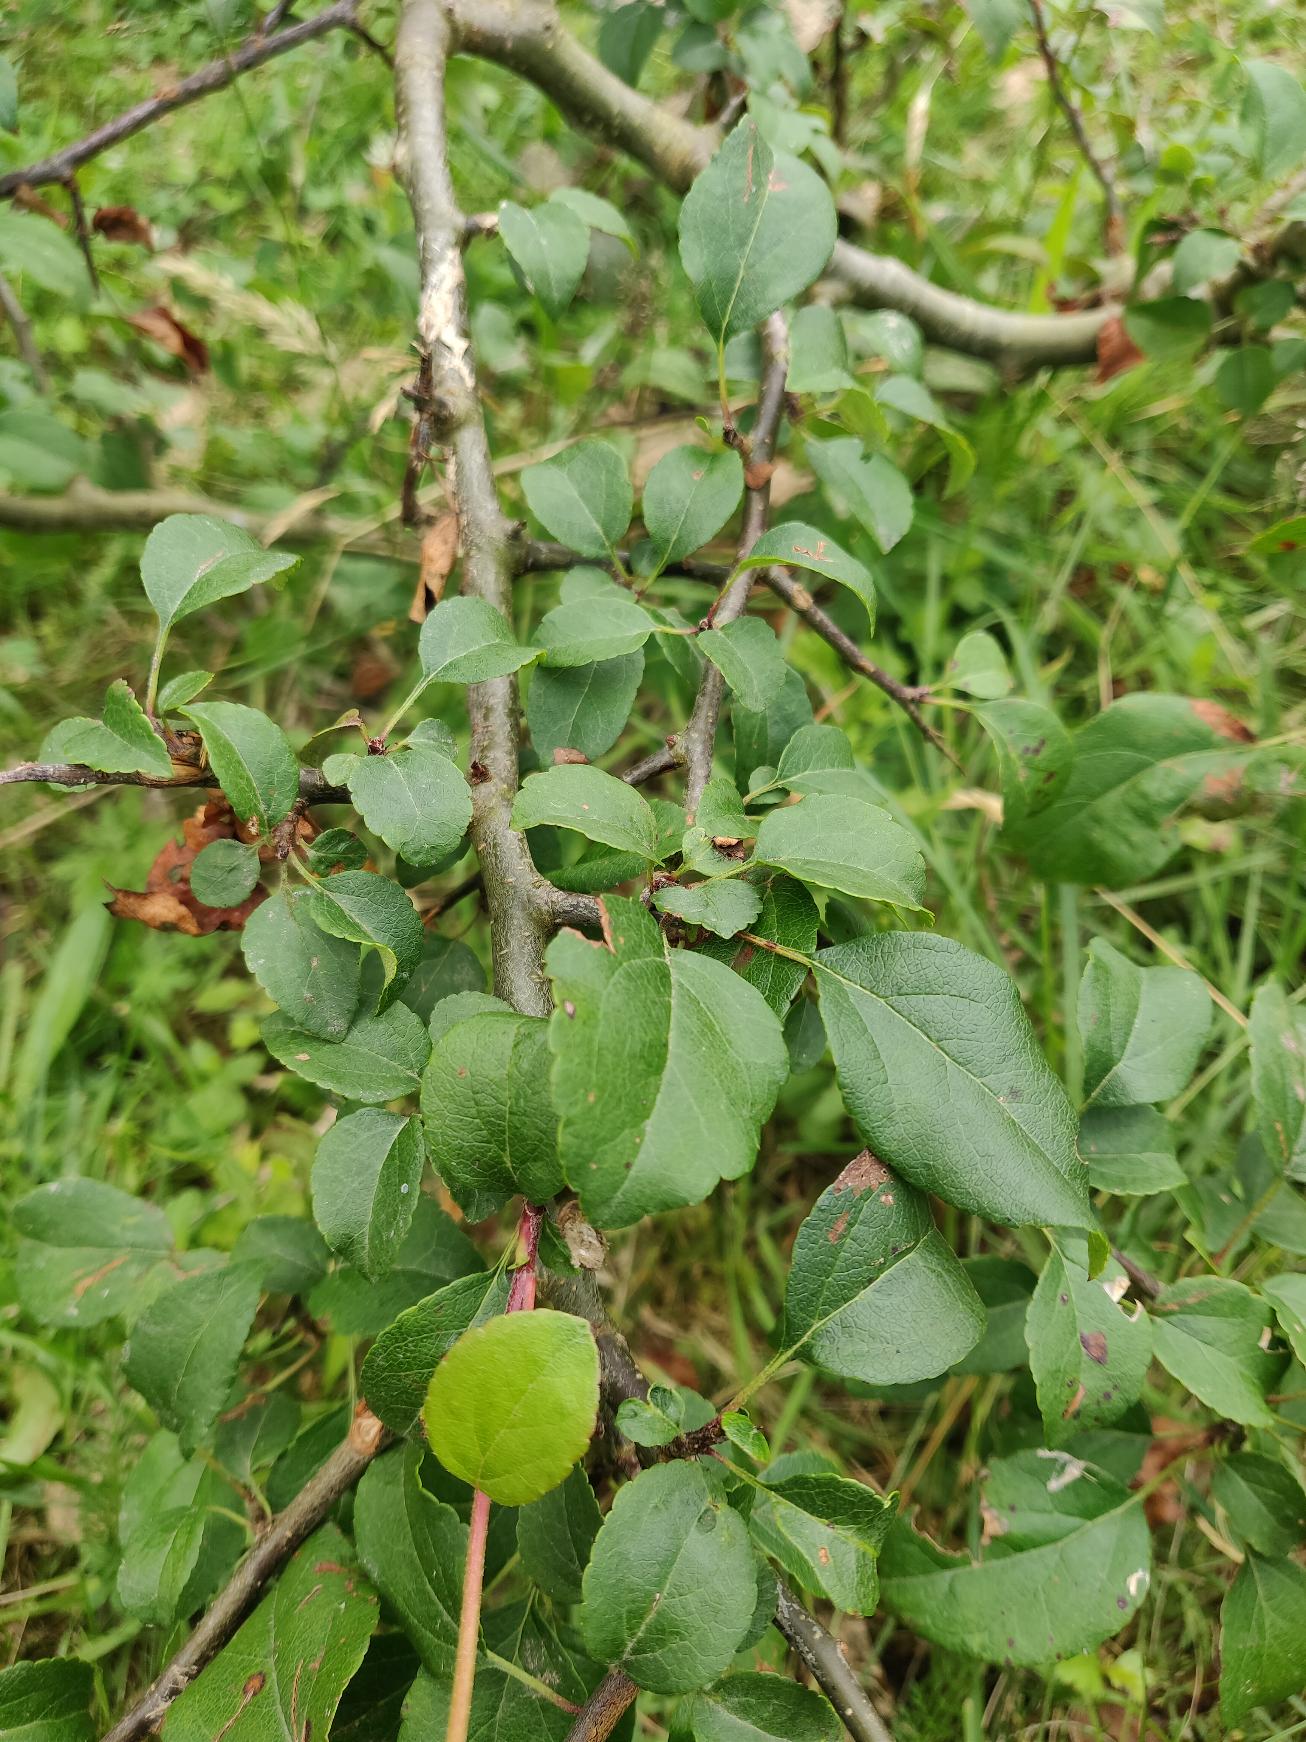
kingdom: Plantae
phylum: Tracheophyta
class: Magnoliopsida
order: Rosales
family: Rosaceae
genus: Malus
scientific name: Malus sylvestris
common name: Skov-æble
